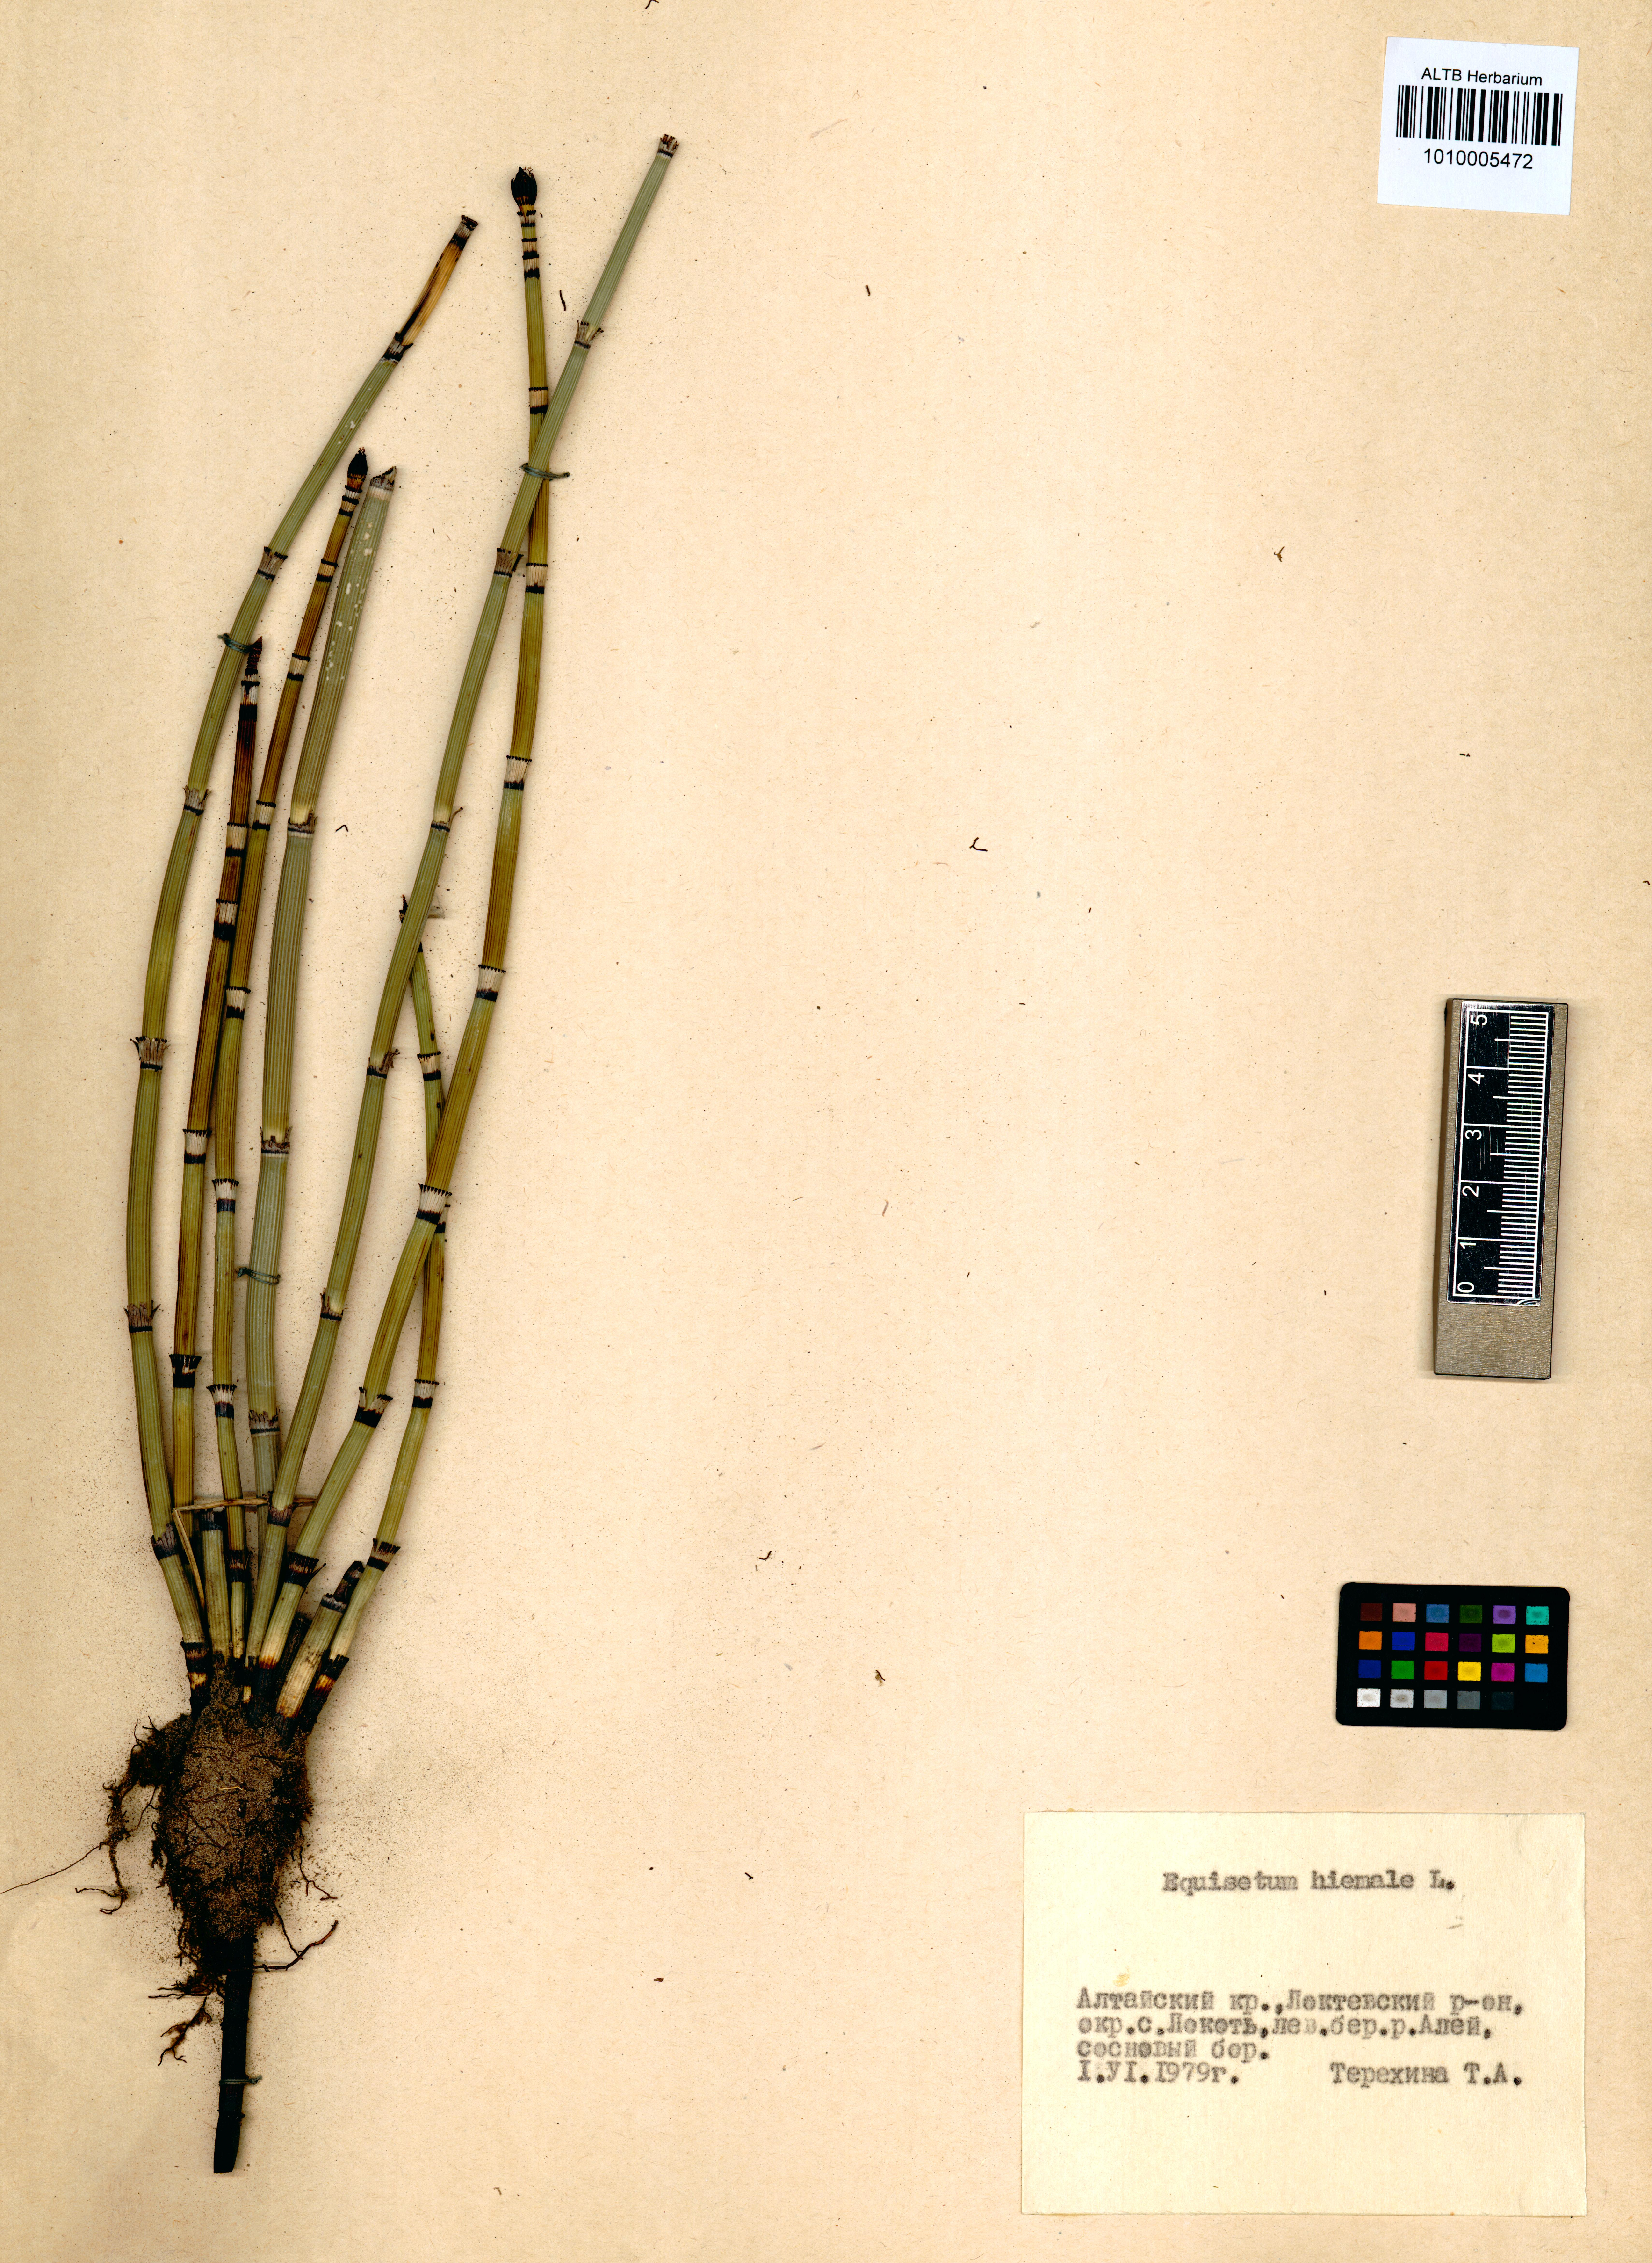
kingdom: Plantae
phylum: Tracheophyta
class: Polypodiopsida
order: Equisetales
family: Equisetaceae
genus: Equisetum
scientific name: Equisetum hyemale
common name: Rough horsetail
